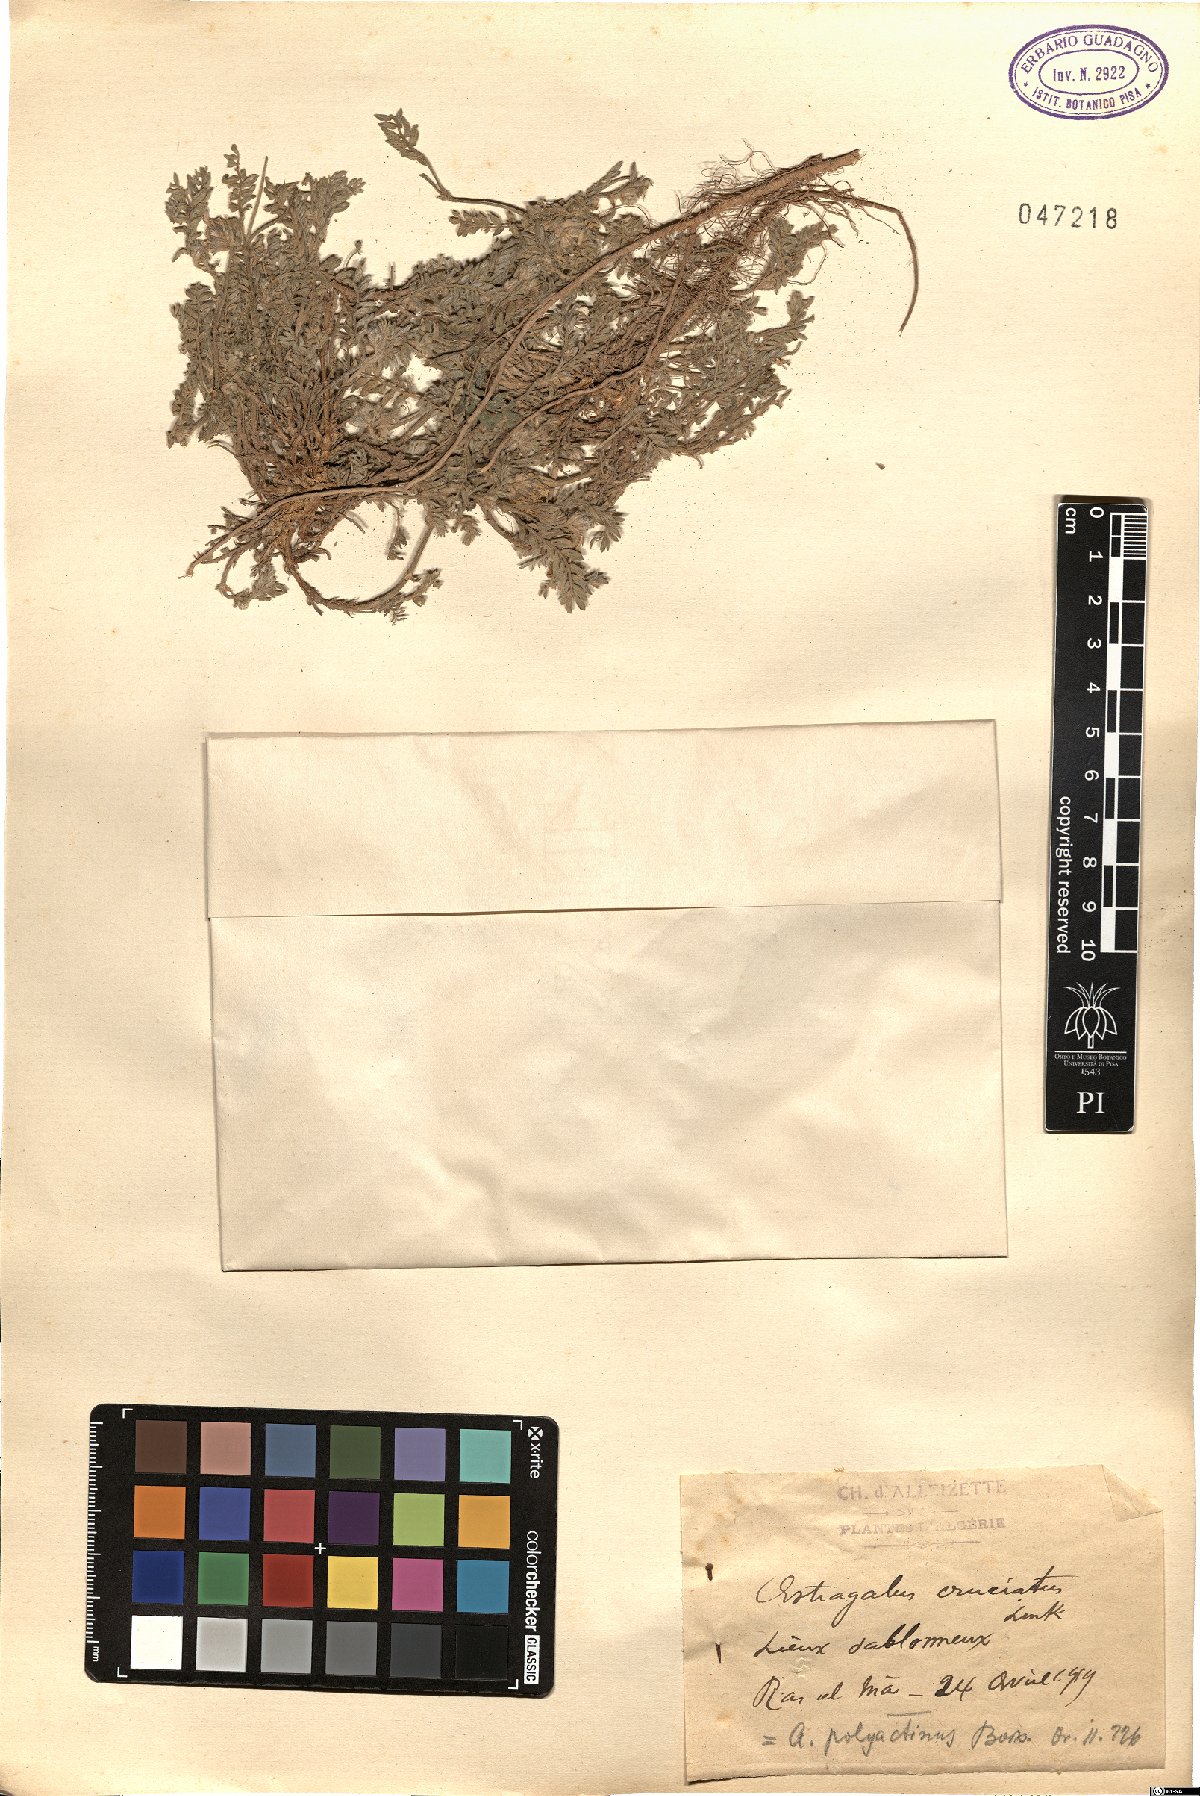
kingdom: Plantae
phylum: Tracheophyta
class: Magnoliopsida
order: Fabales
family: Fabaceae
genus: Astragalus
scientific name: Astragalus stella
